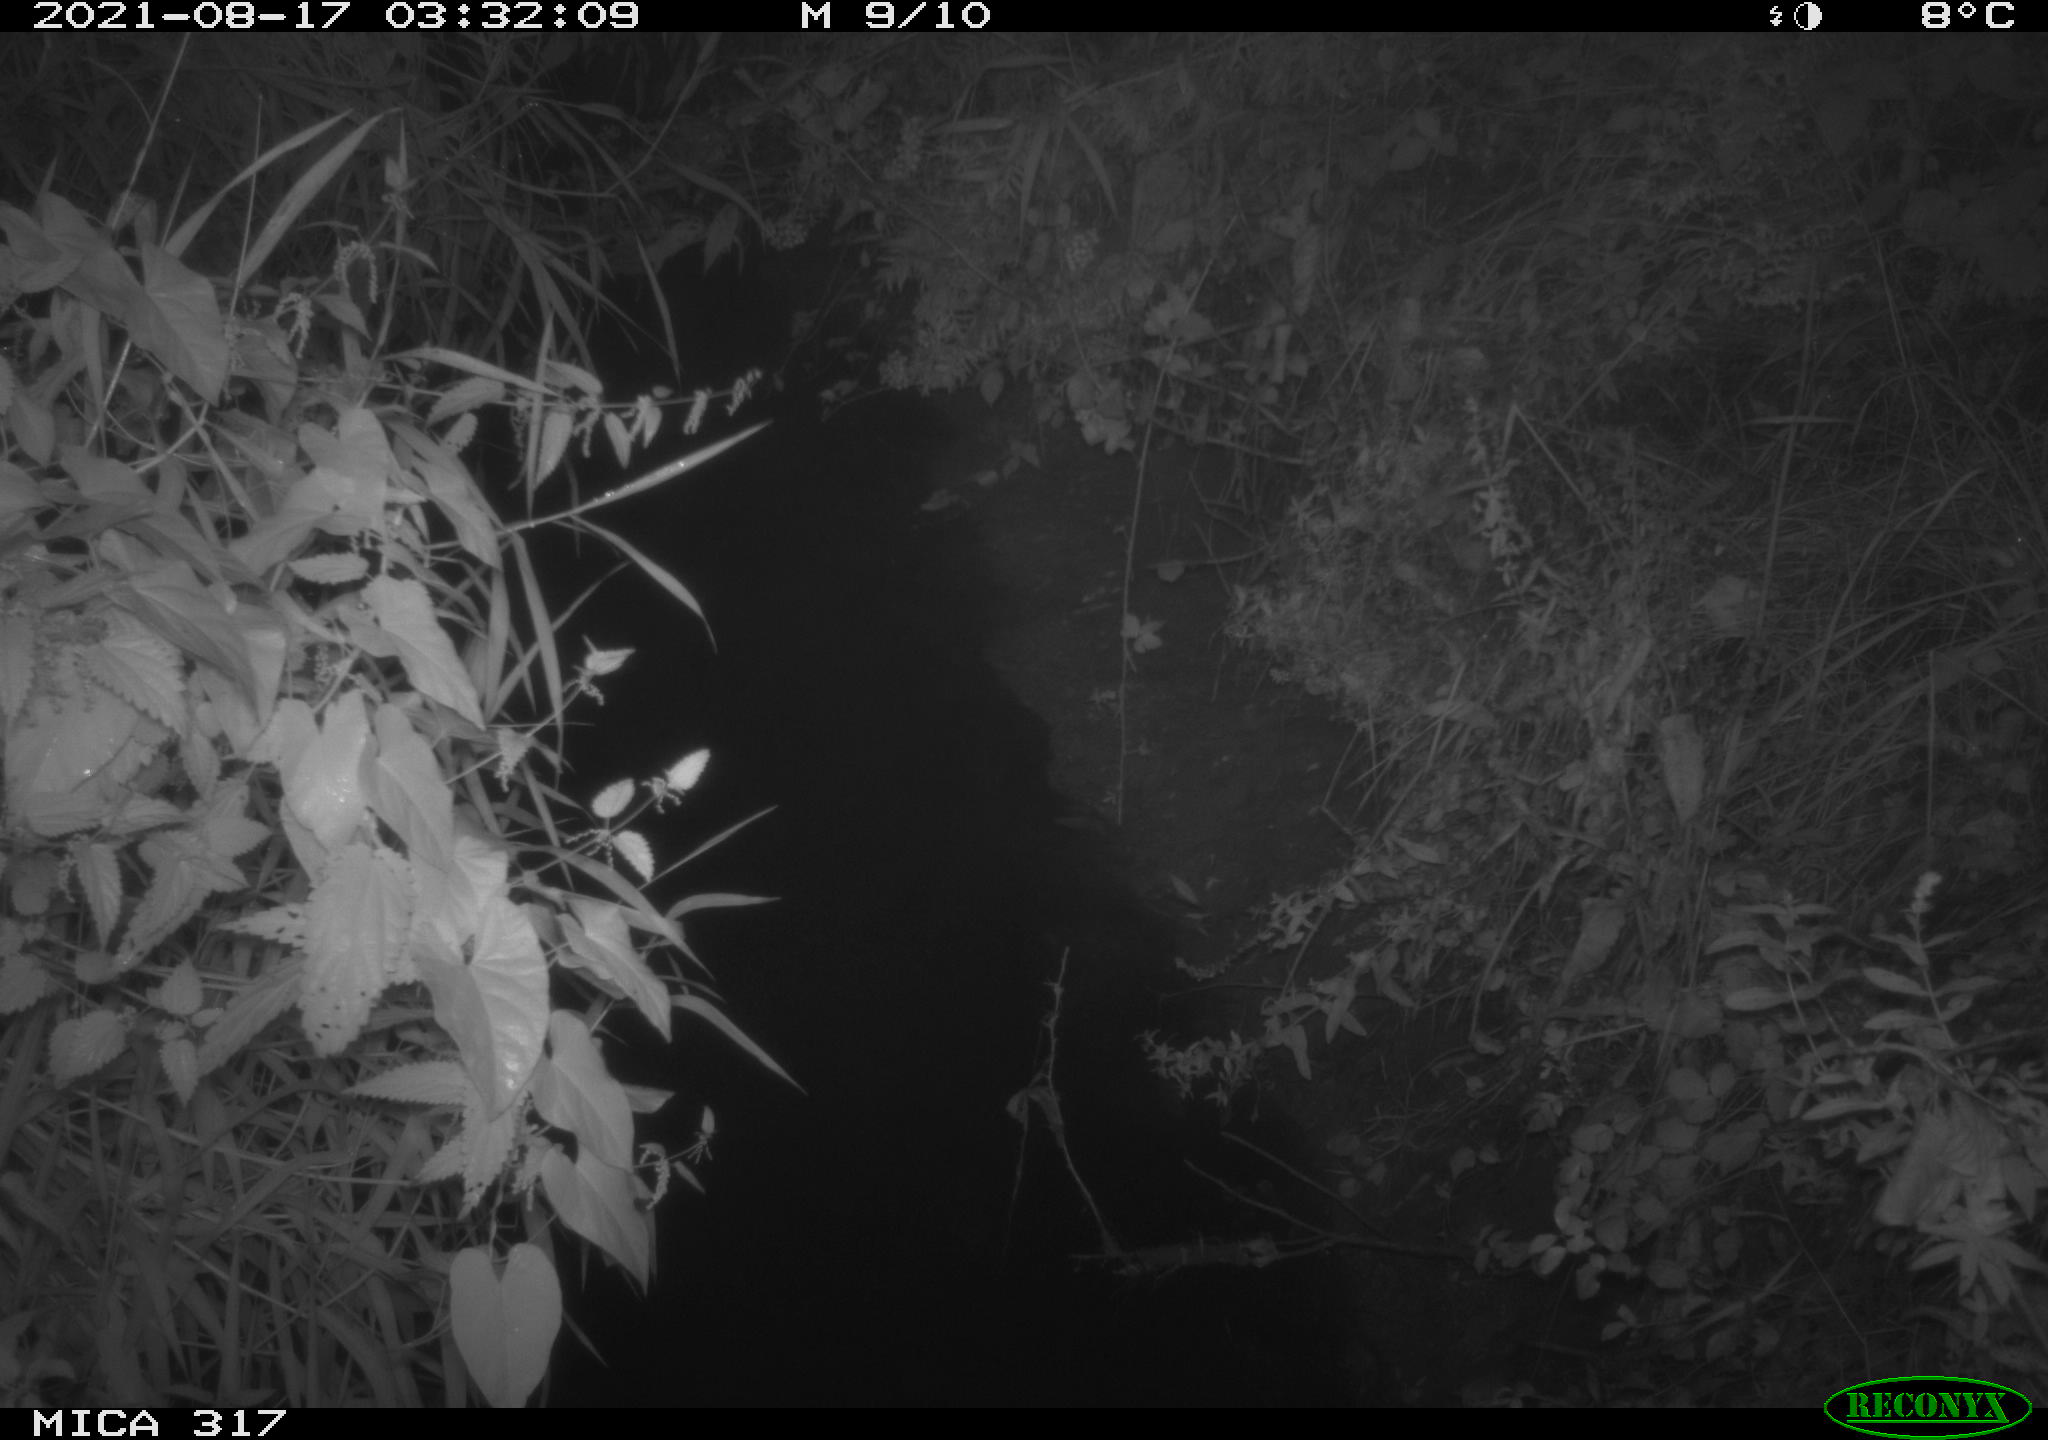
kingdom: Animalia
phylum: Chordata
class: Mammalia
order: Rodentia
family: Muridae
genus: Rattus
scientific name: Rattus norvegicus
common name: Brown rat
